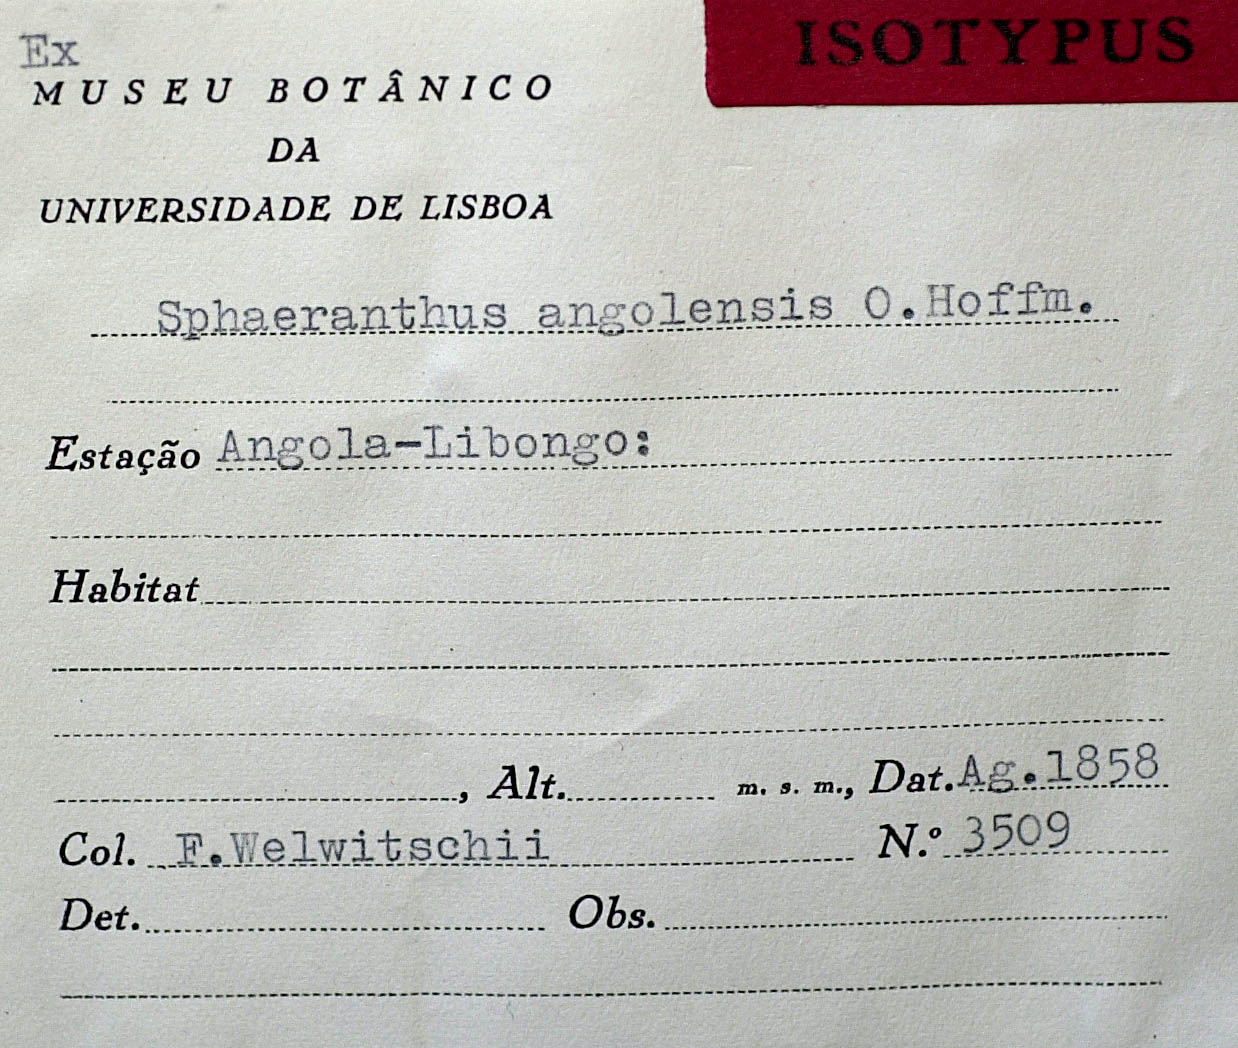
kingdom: Plantae
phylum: Tracheophyta
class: Magnoliopsida
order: Asterales
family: Asteraceae
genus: Sphaeranthus
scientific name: Sphaeranthus angolensis
